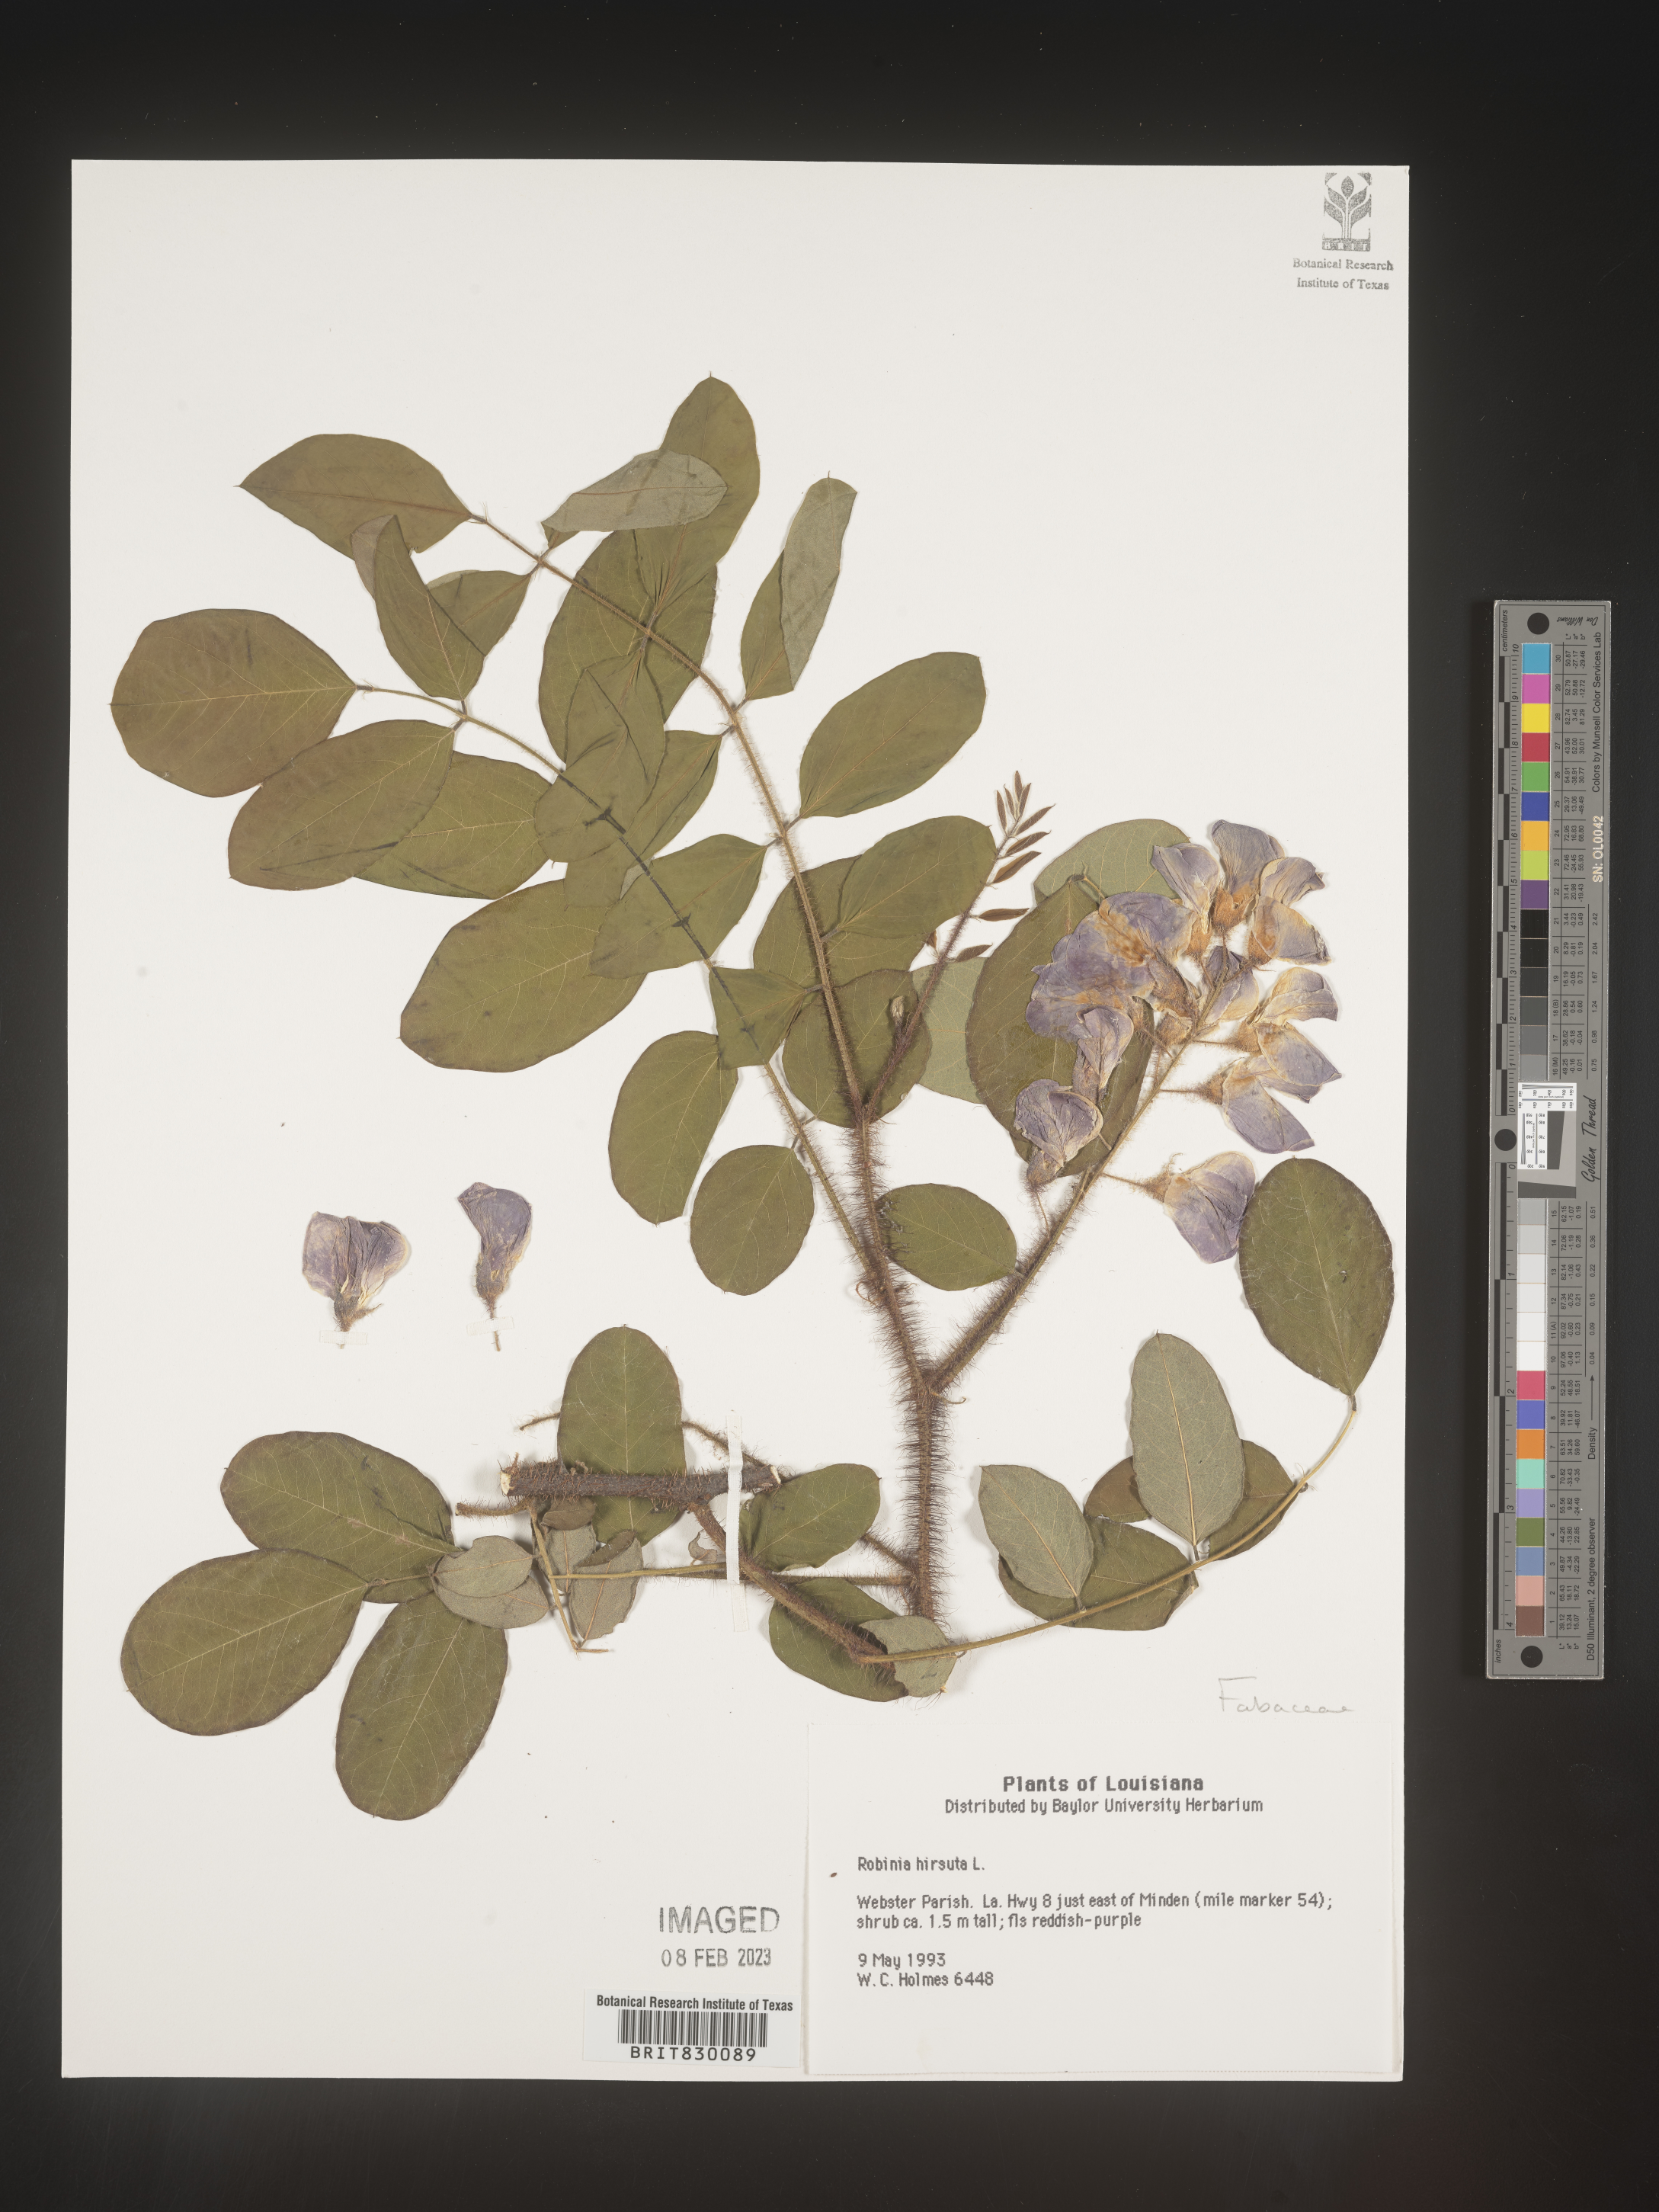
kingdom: Plantae
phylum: Tracheophyta
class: Magnoliopsida
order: Fabales
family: Fabaceae
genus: Robinia
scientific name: Robinia hispida
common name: Bristly locust
